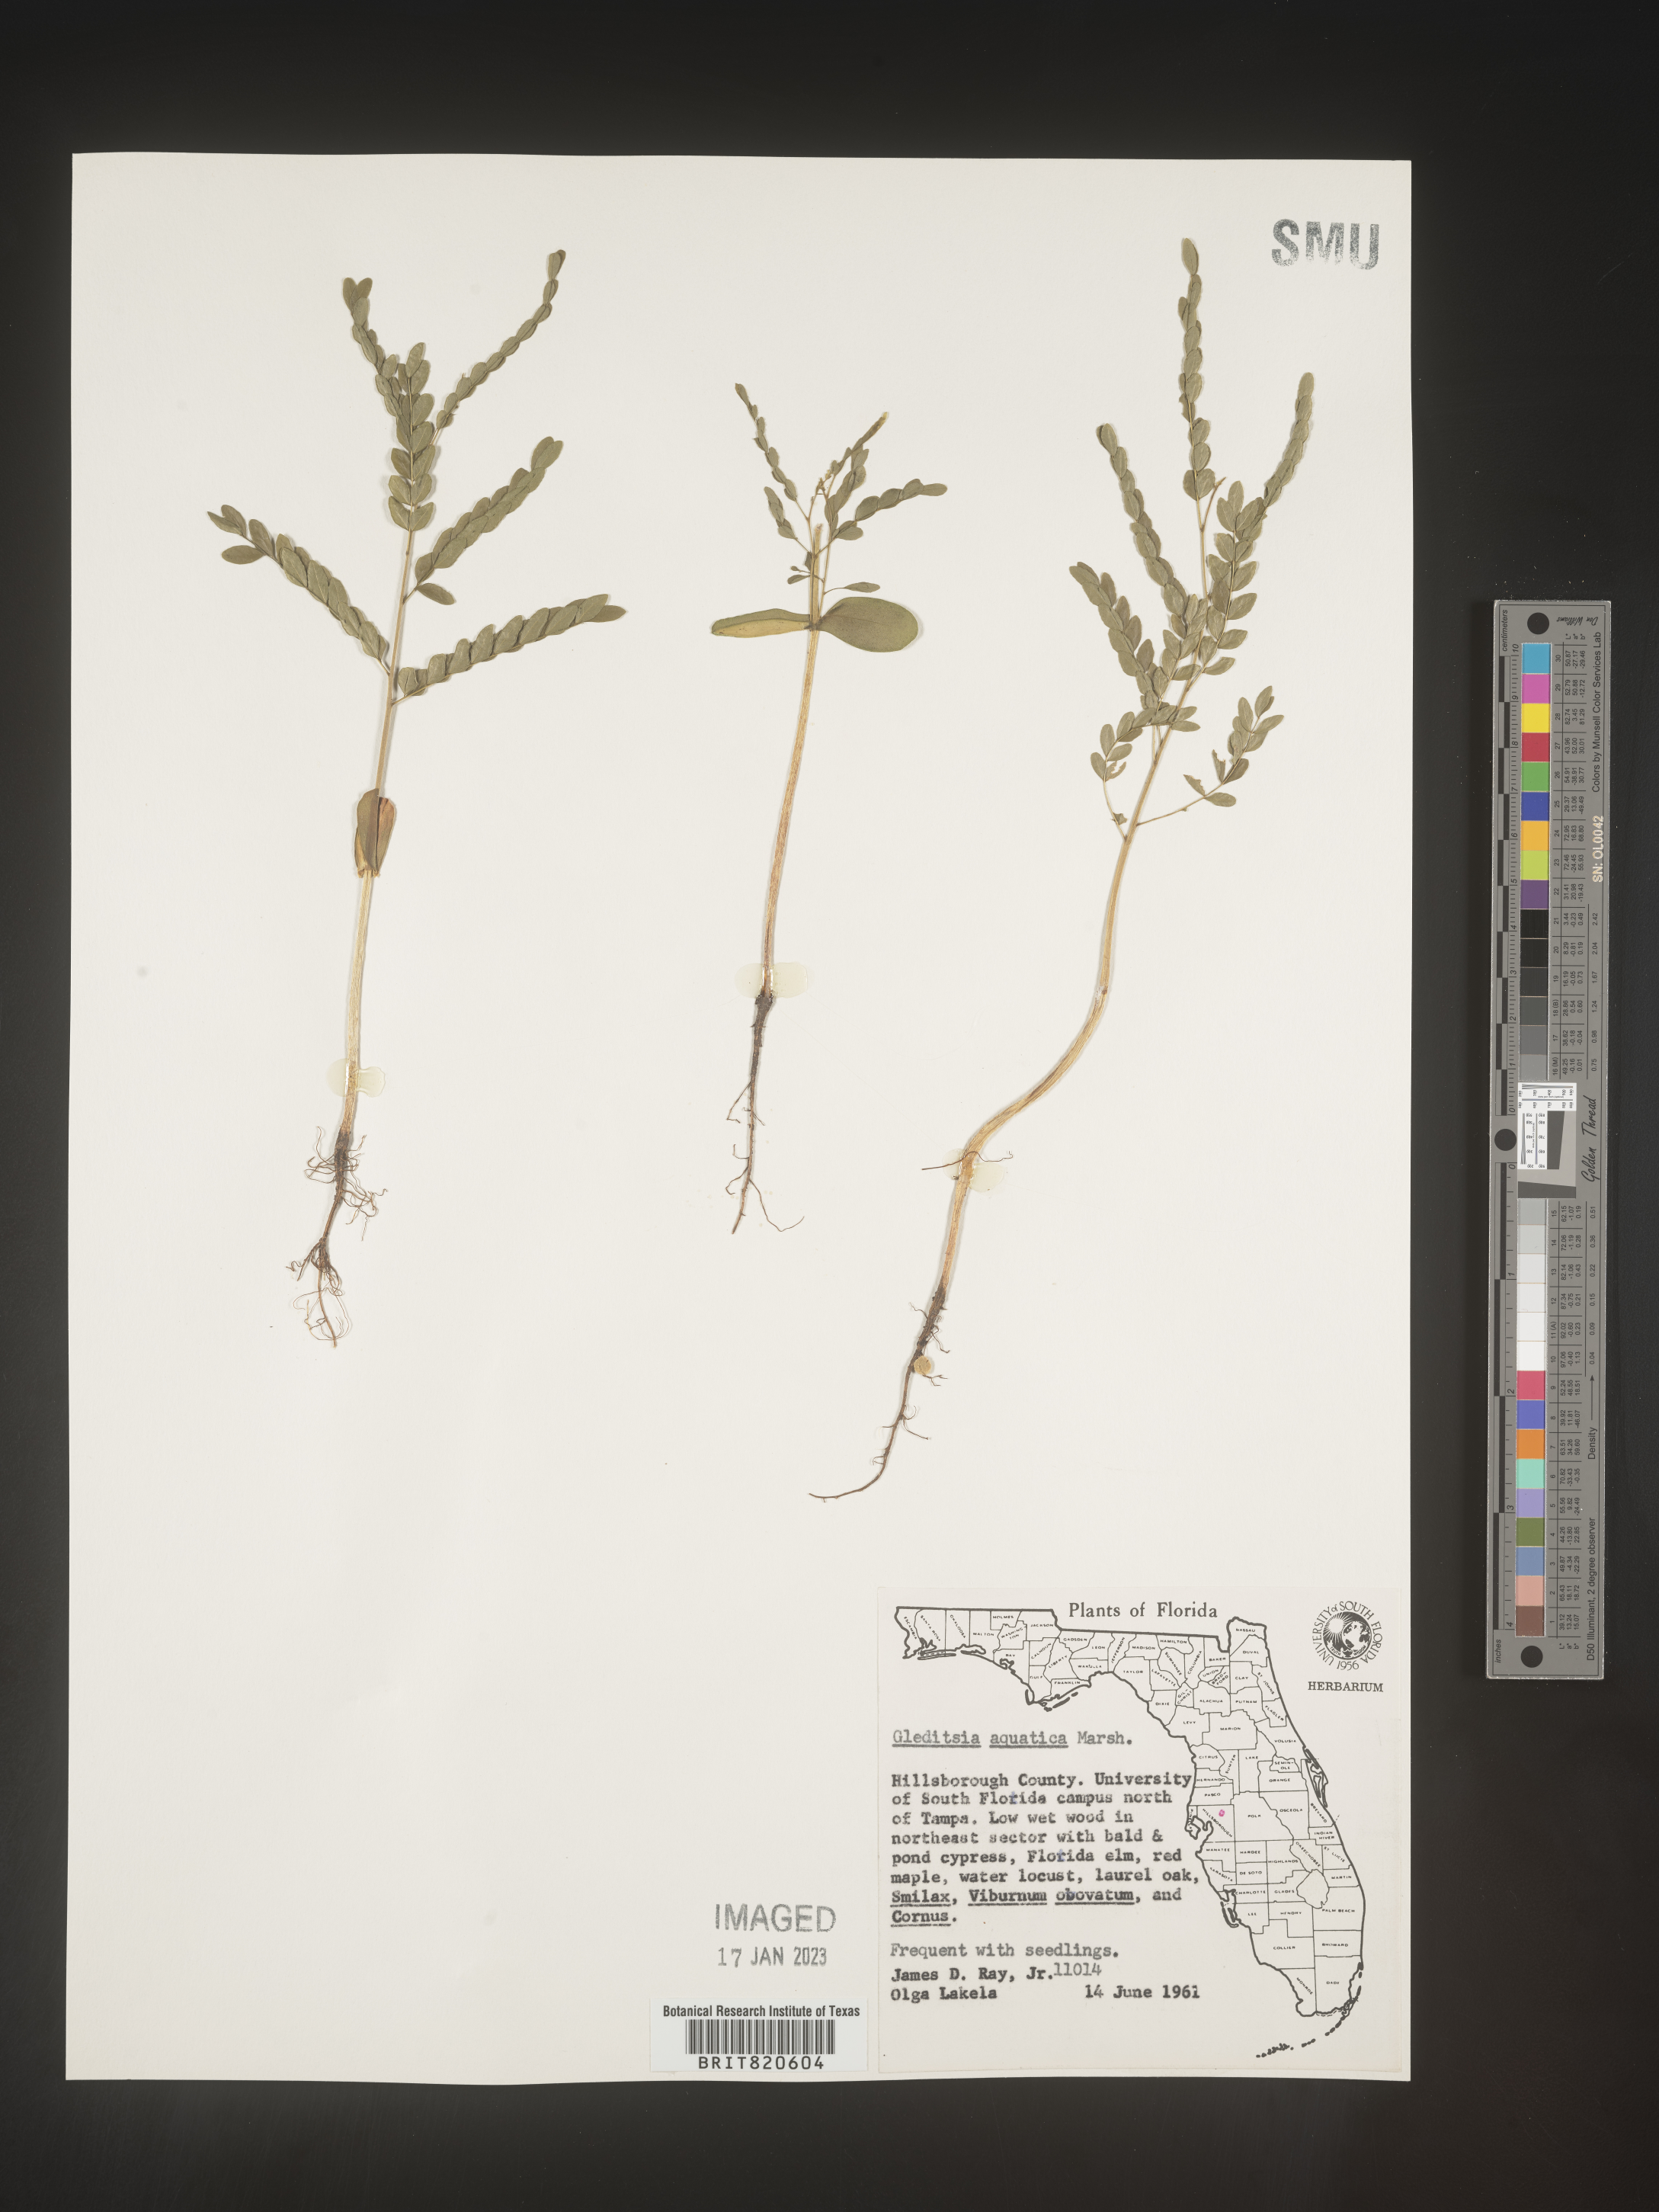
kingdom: Plantae
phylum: Tracheophyta
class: Magnoliopsida
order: Fabales
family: Fabaceae
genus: Gleditsia
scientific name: Gleditsia aquatica
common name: Swamp-locust
